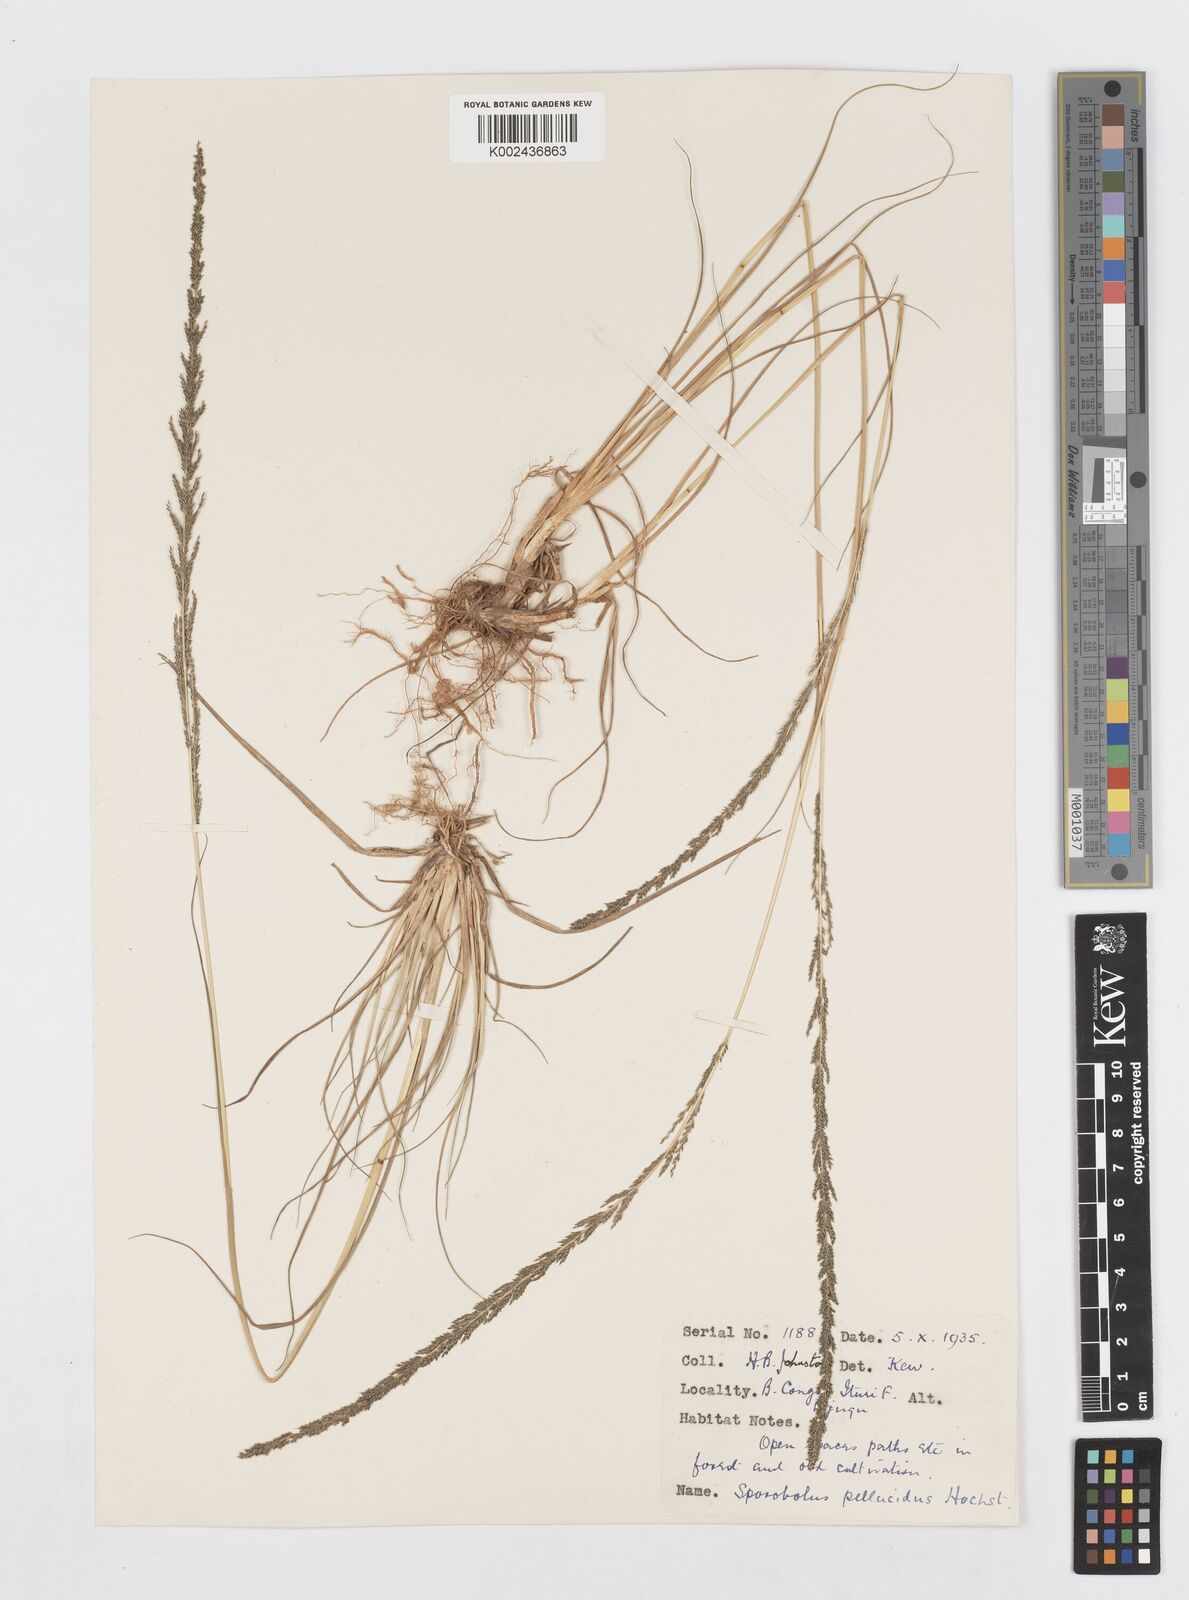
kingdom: Plantae
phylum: Tracheophyta
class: Liliopsida
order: Poales
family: Poaceae
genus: Sporobolus
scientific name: Sporobolus africanus
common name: African dropseed
